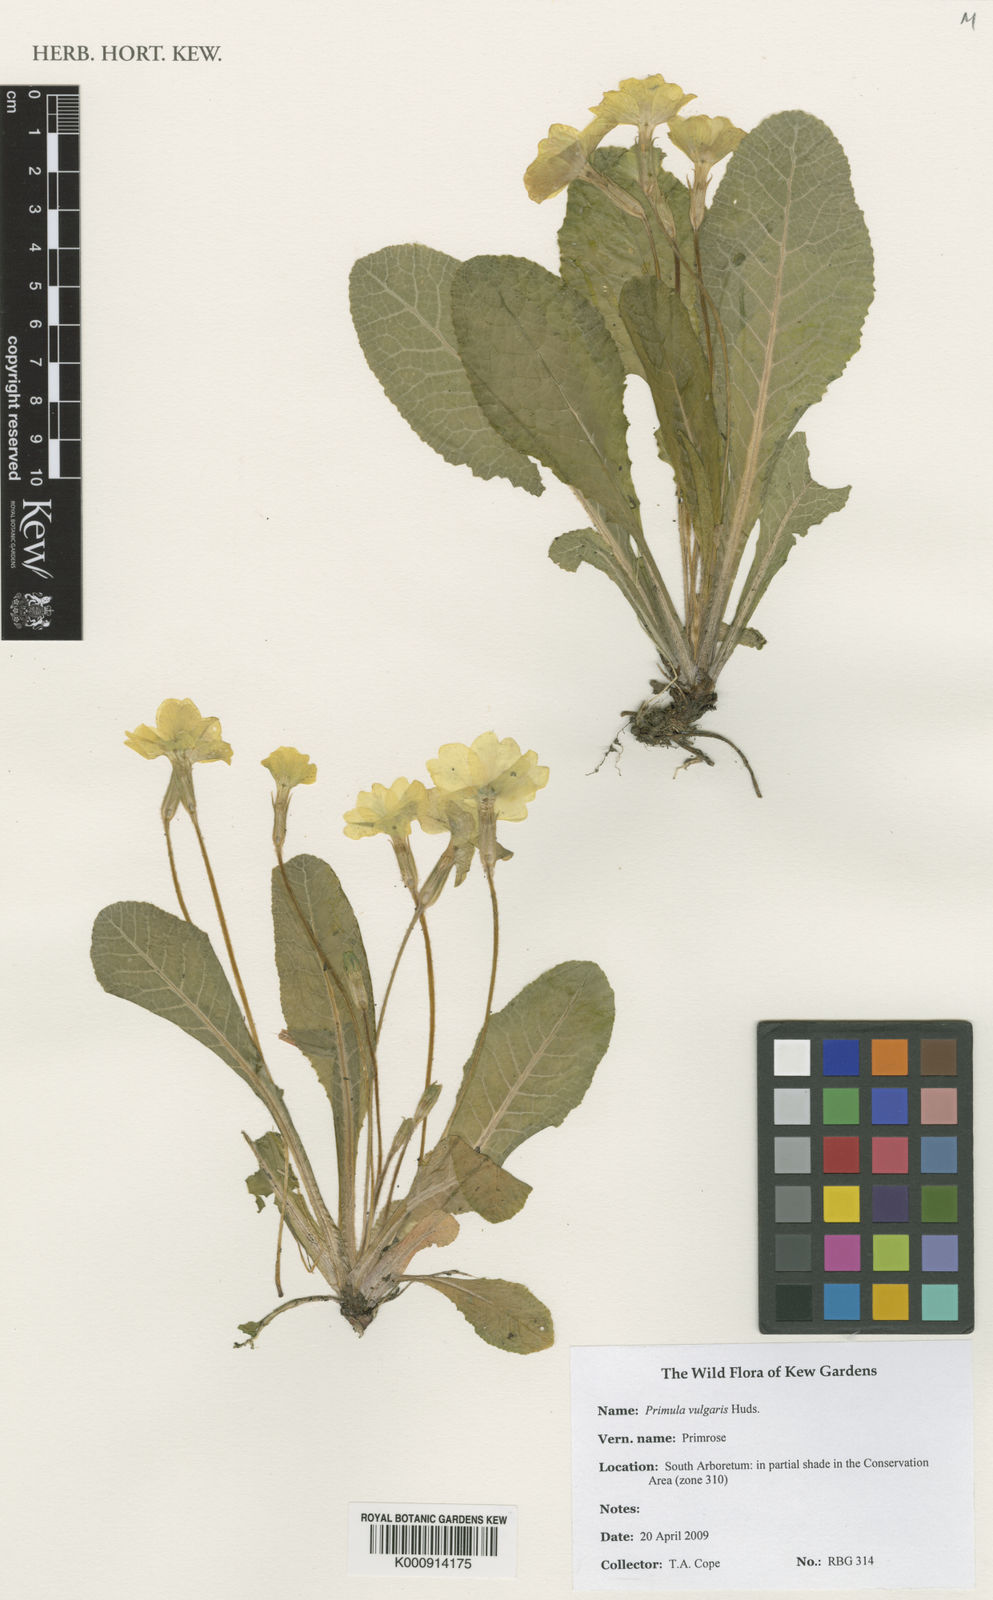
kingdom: Plantae
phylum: Tracheophyta
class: Magnoliopsida
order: Ericales
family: Primulaceae
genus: Primula
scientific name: Primula vulgaris
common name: Primrose
